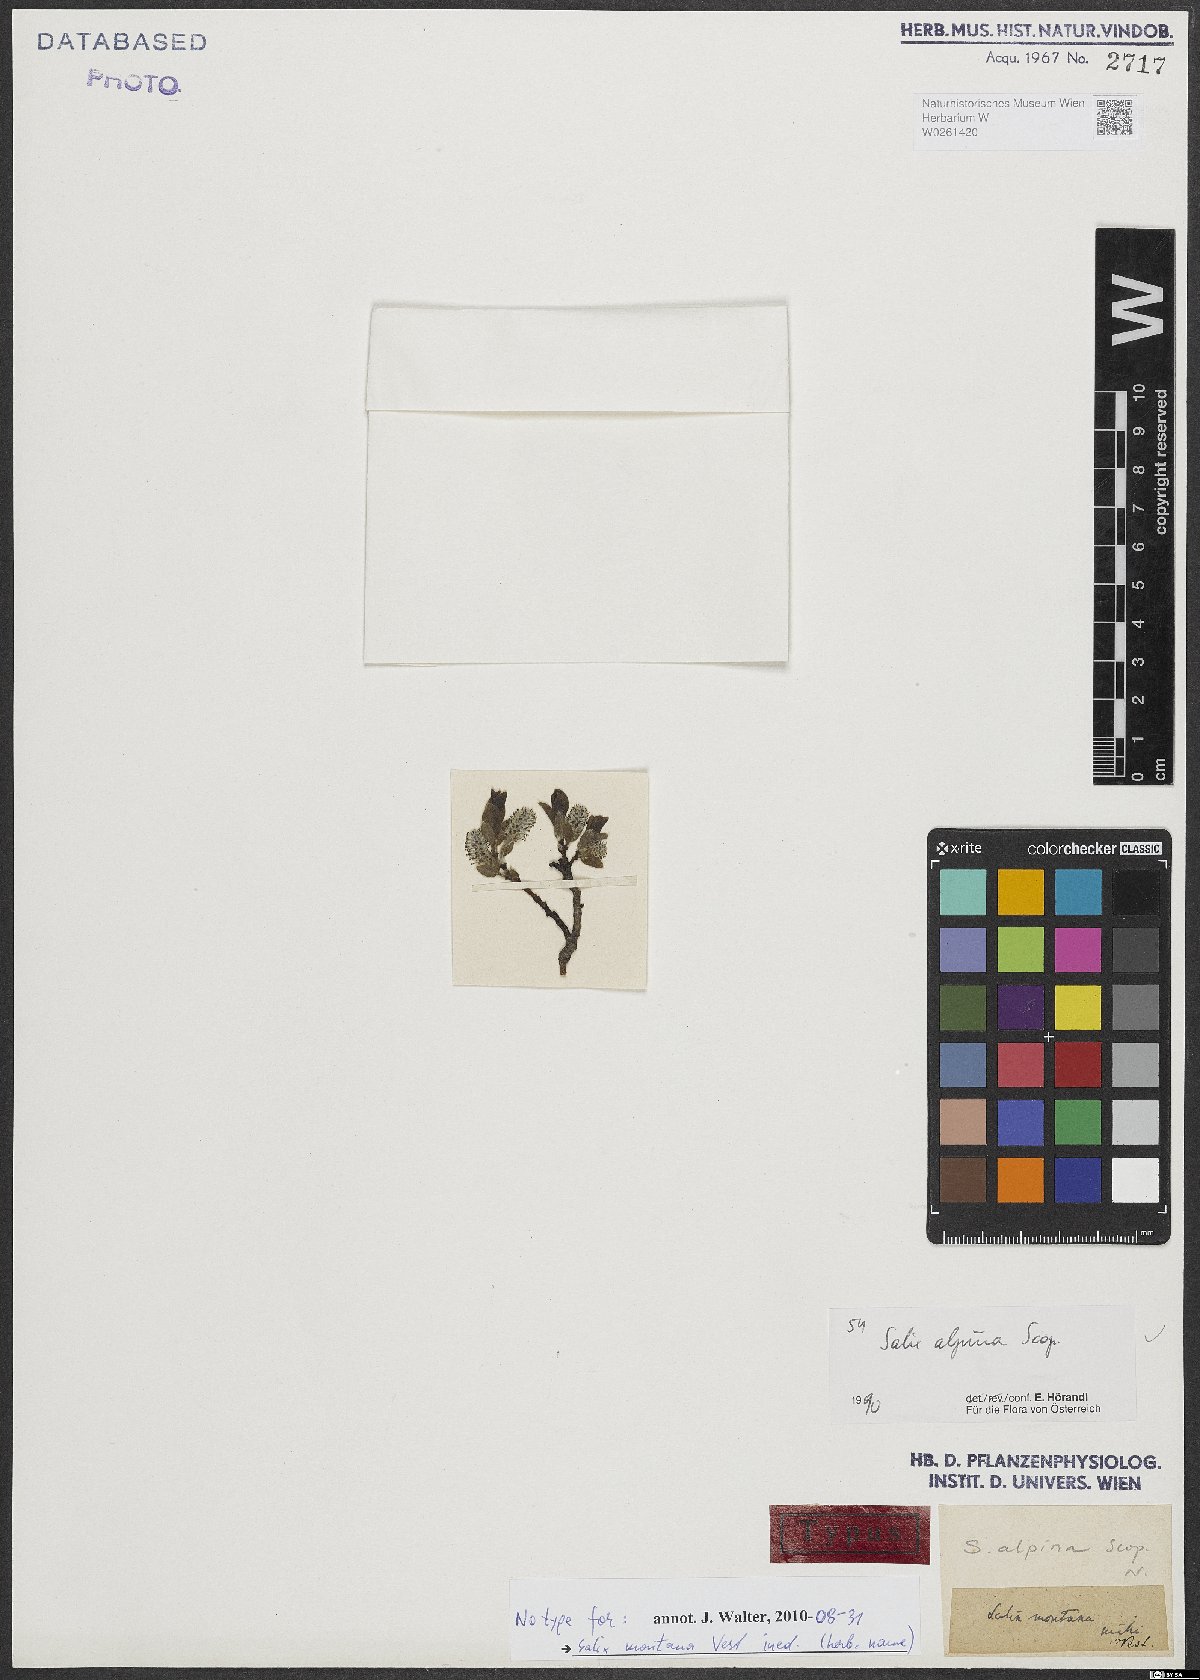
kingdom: Plantae
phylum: Tracheophyta
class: Magnoliopsida
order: Malpighiales
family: Salicaceae
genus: Salix
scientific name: Salix alpina
